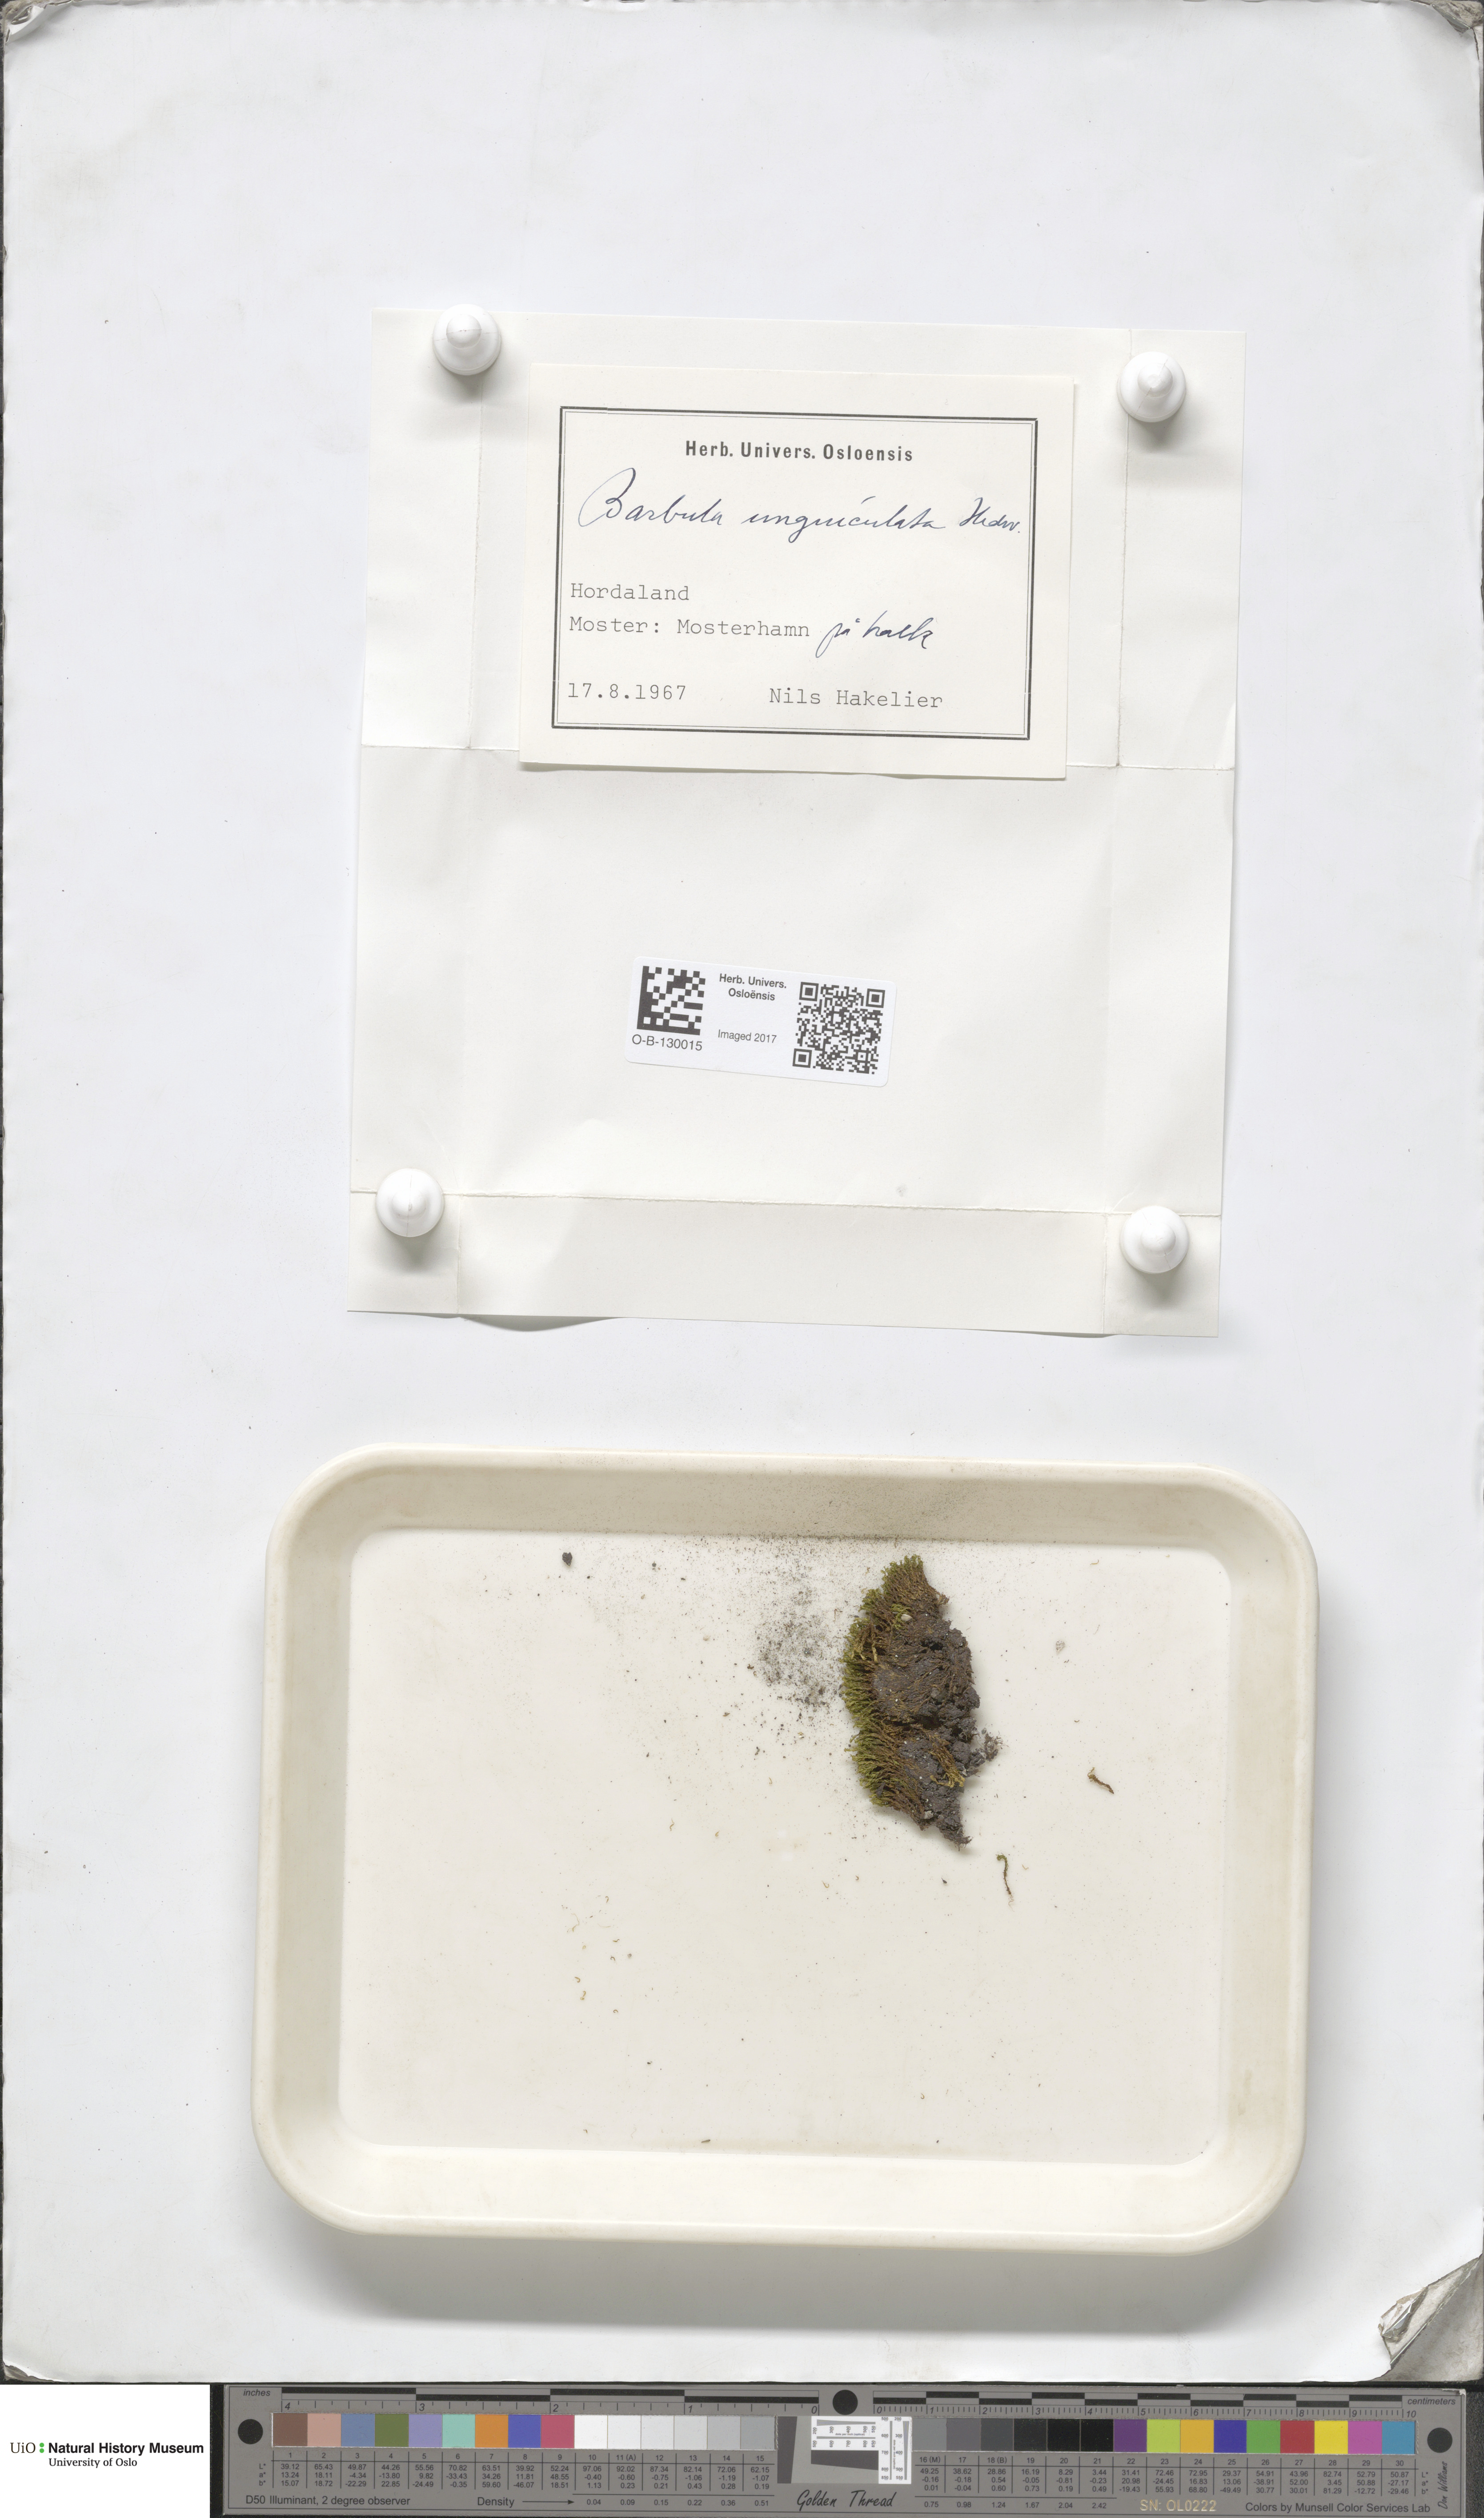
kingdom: Plantae
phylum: Bryophyta
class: Bryopsida
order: Pottiales
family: Pottiaceae
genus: Barbula
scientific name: Barbula unguiculata
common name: Prickly beard moss
